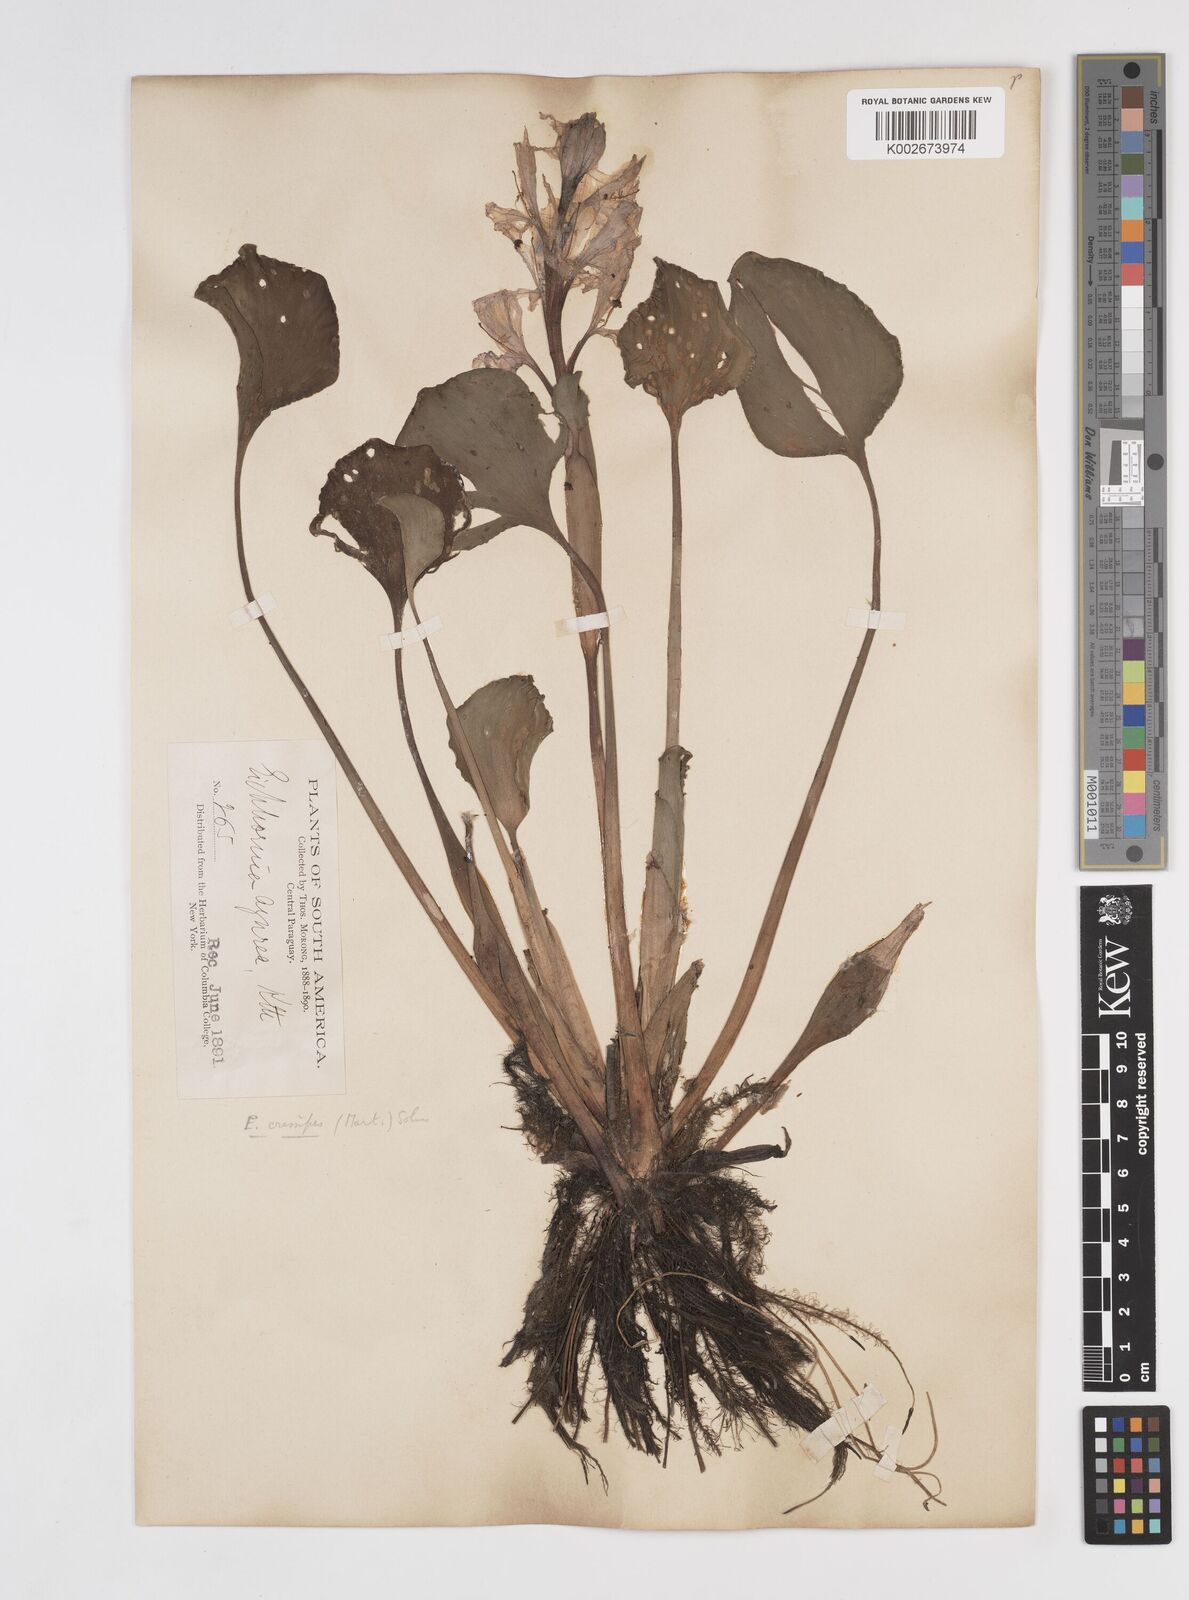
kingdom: Plantae
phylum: Tracheophyta
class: Liliopsida
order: Commelinales
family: Pontederiaceae
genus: Pontederia
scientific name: Pontederia crassipes
